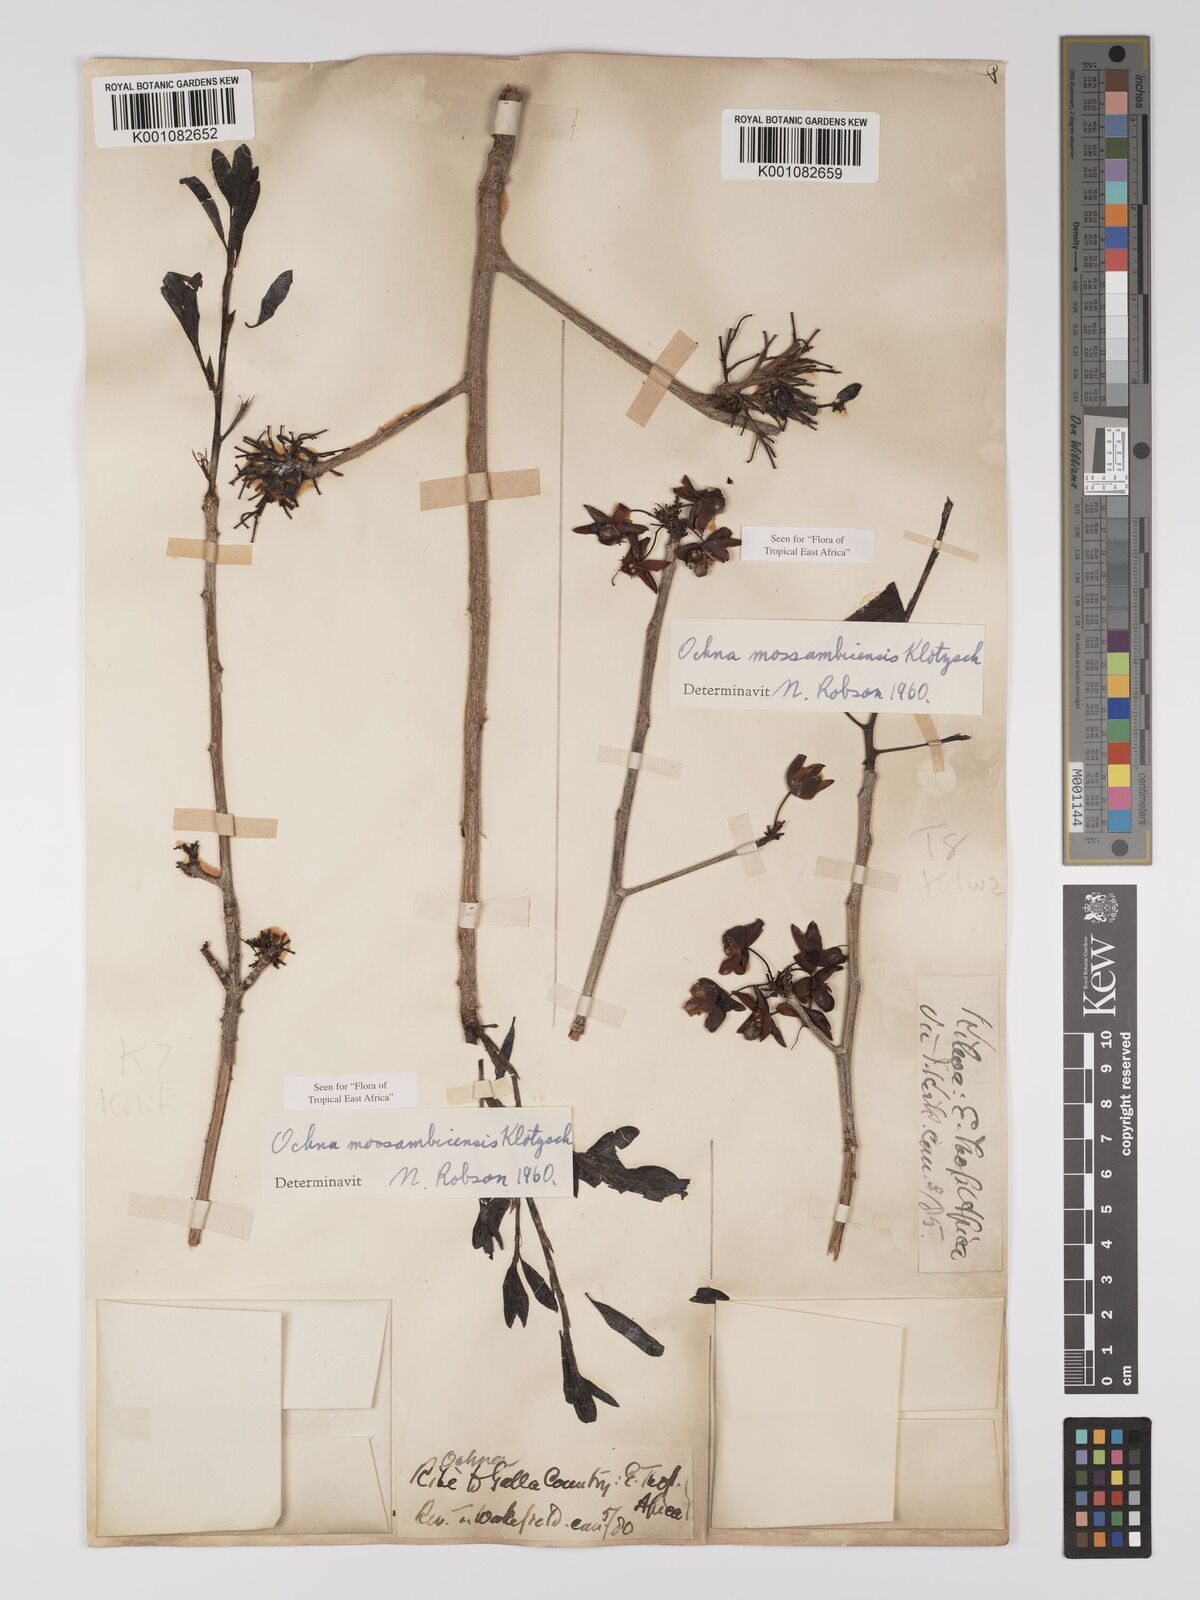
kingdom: Plantae
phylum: Tracheophyta
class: Magnoliopsida
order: Malpighiales
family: Ochnaceae
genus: Ochna
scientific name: Ochna atropurpurea
